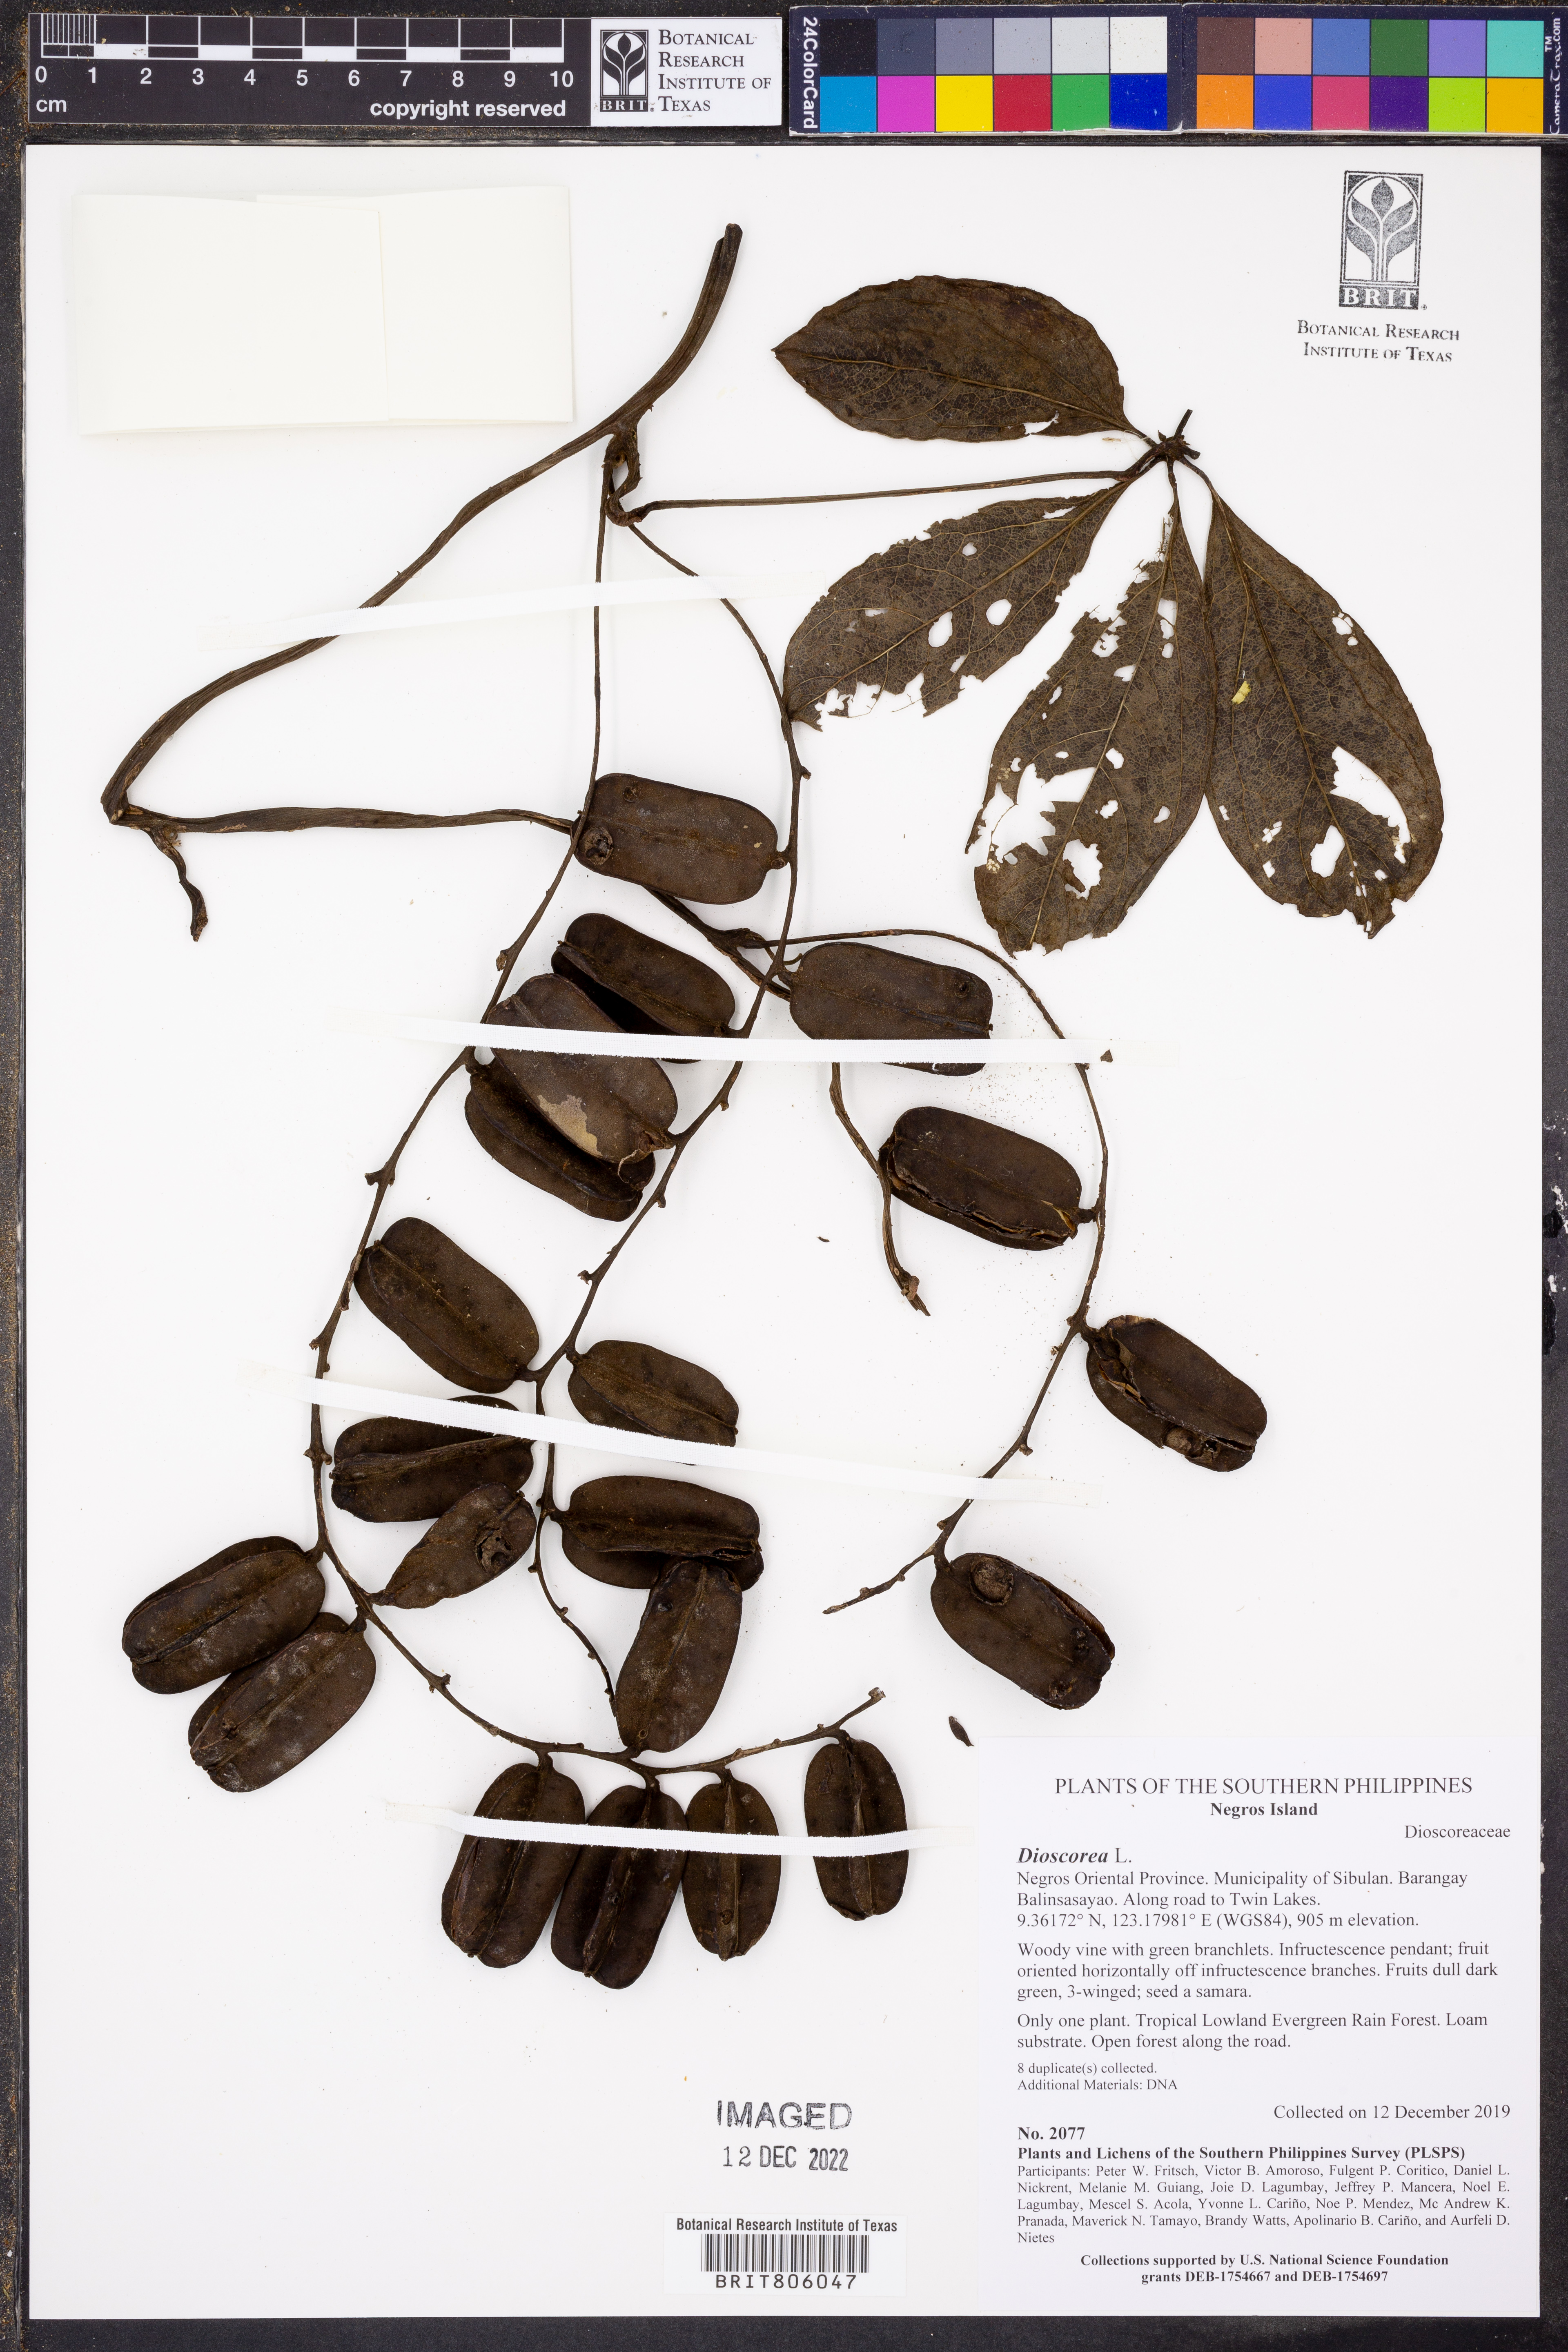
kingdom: Plantae
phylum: Tracheophyta
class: Liliopsida
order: Dioscoreales
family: Dioscoreaceae
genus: Dioscorea
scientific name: Dioscorea
